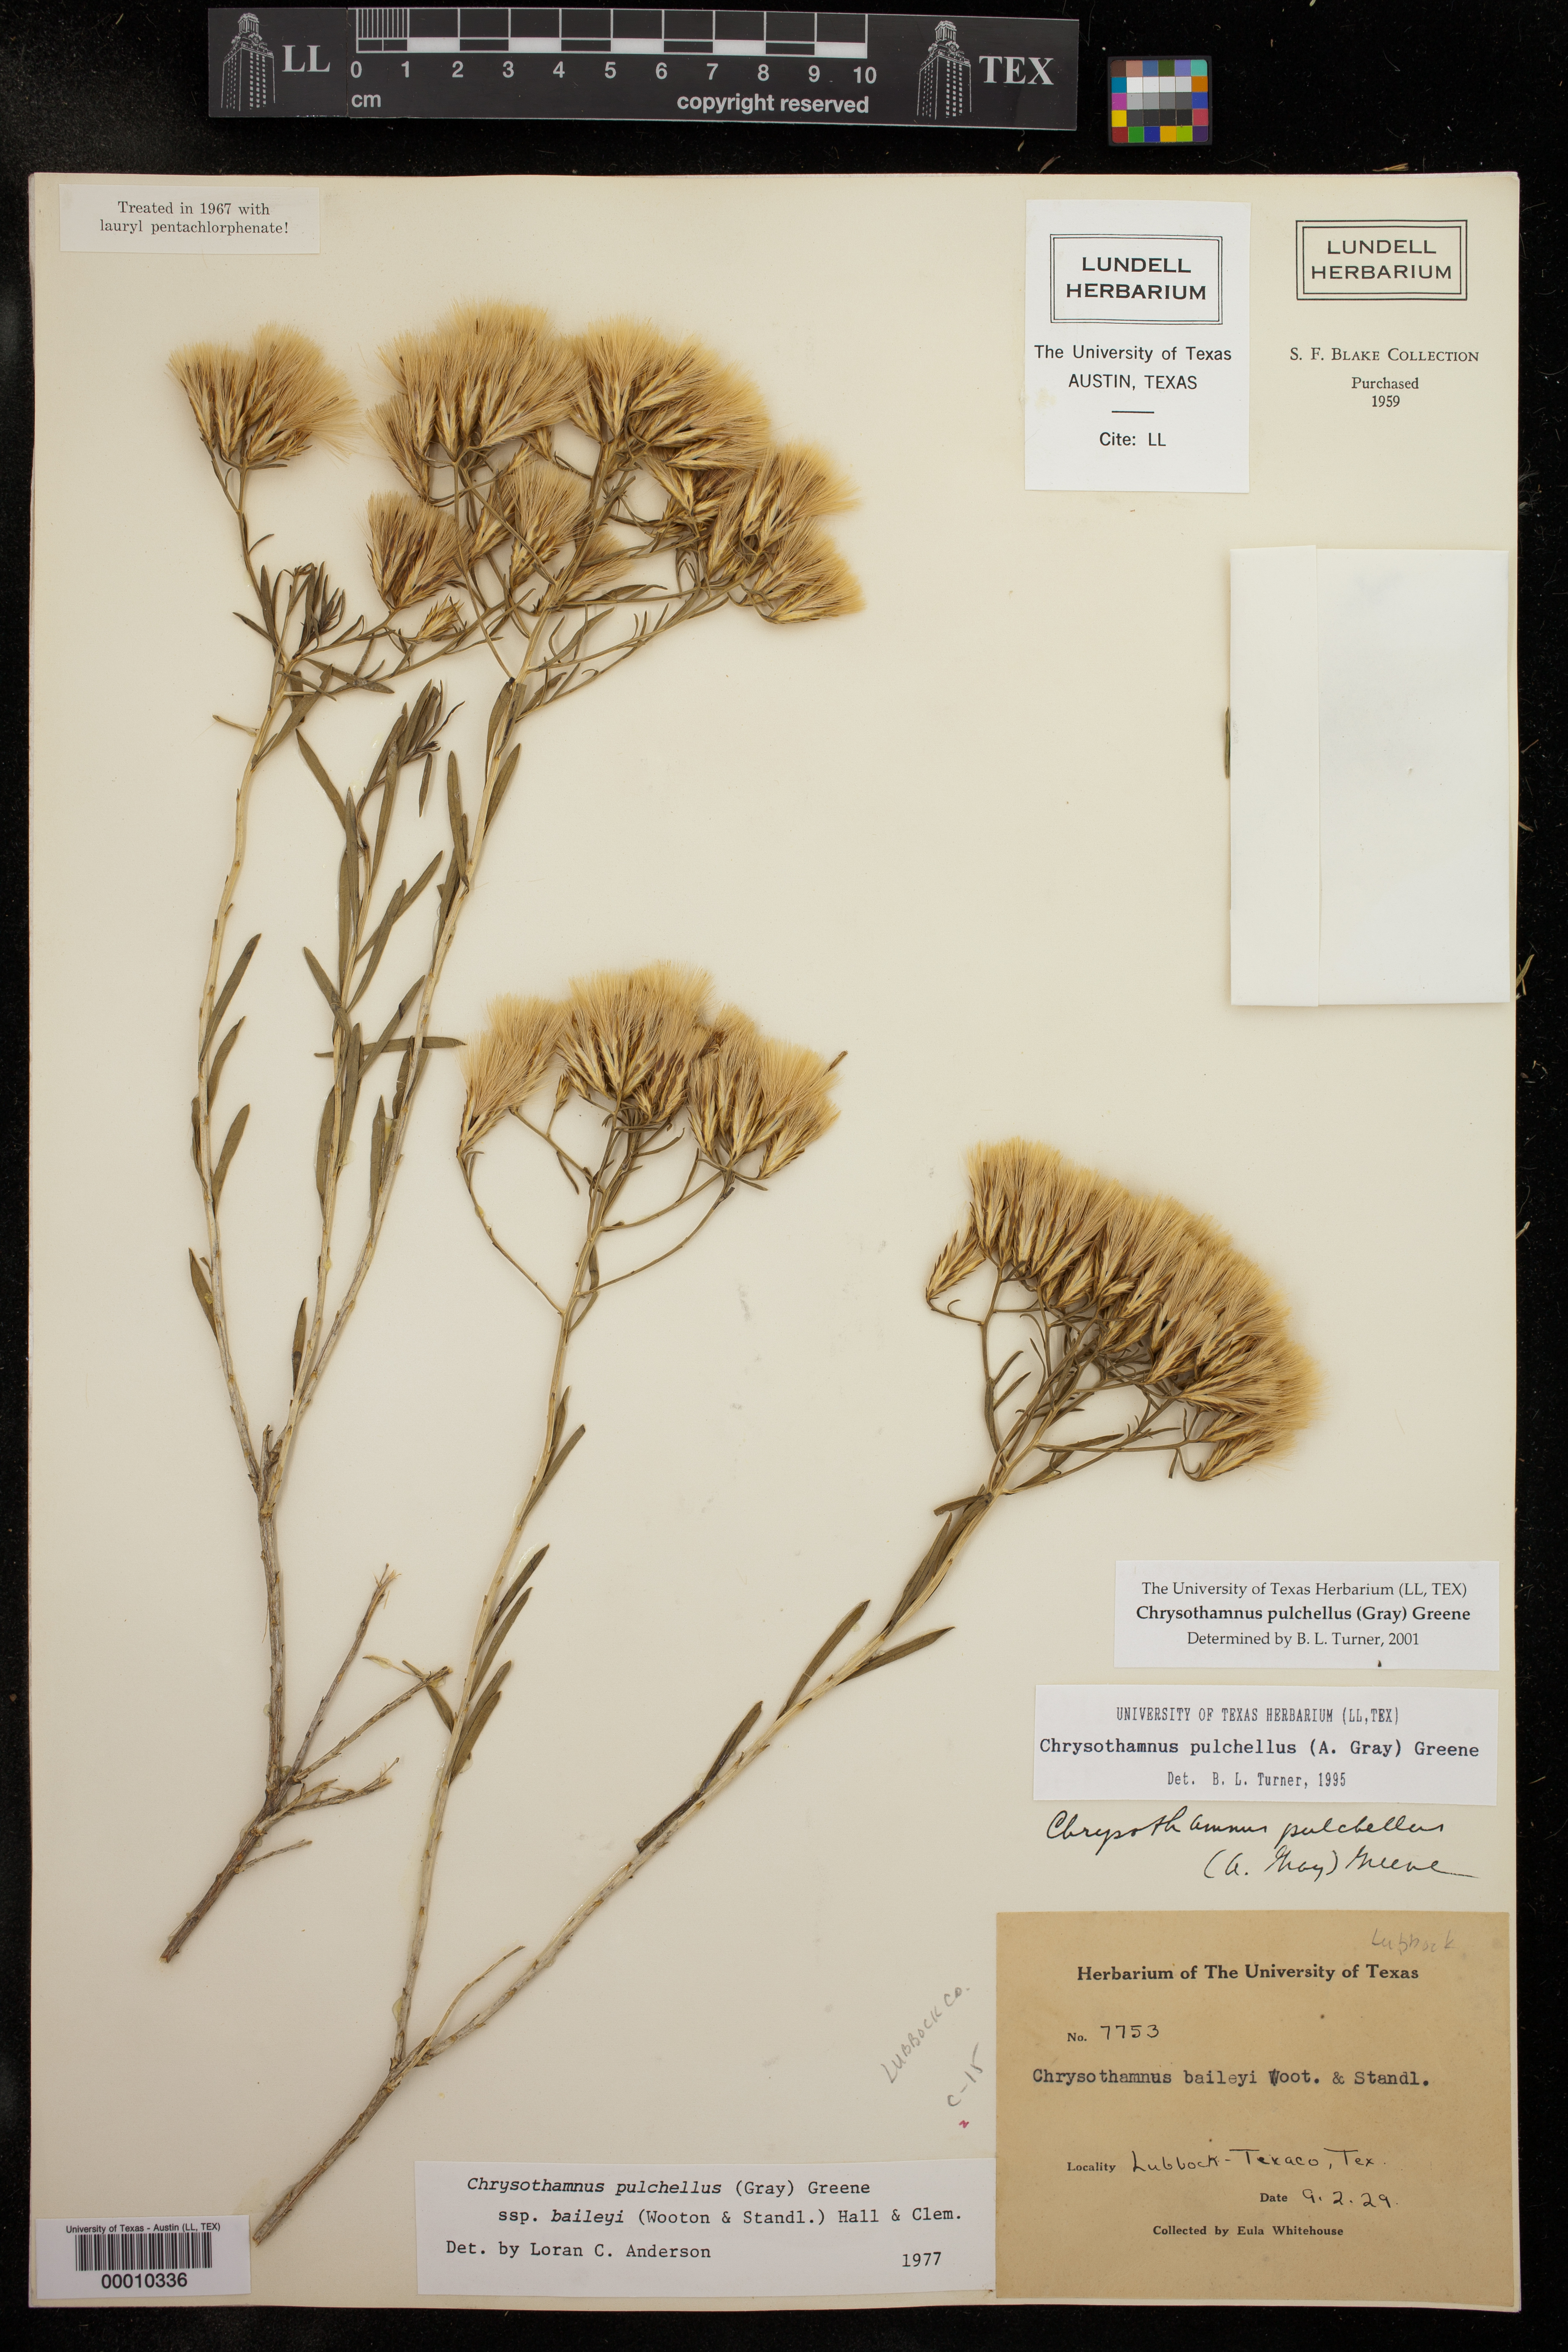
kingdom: Plantae
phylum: Tracheophyta
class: Magnoliopsida
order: Asterales
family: Asteraceae
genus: Lorandersonia
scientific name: Lorandersonia pulchella
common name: Southwestern rabbitbrush
